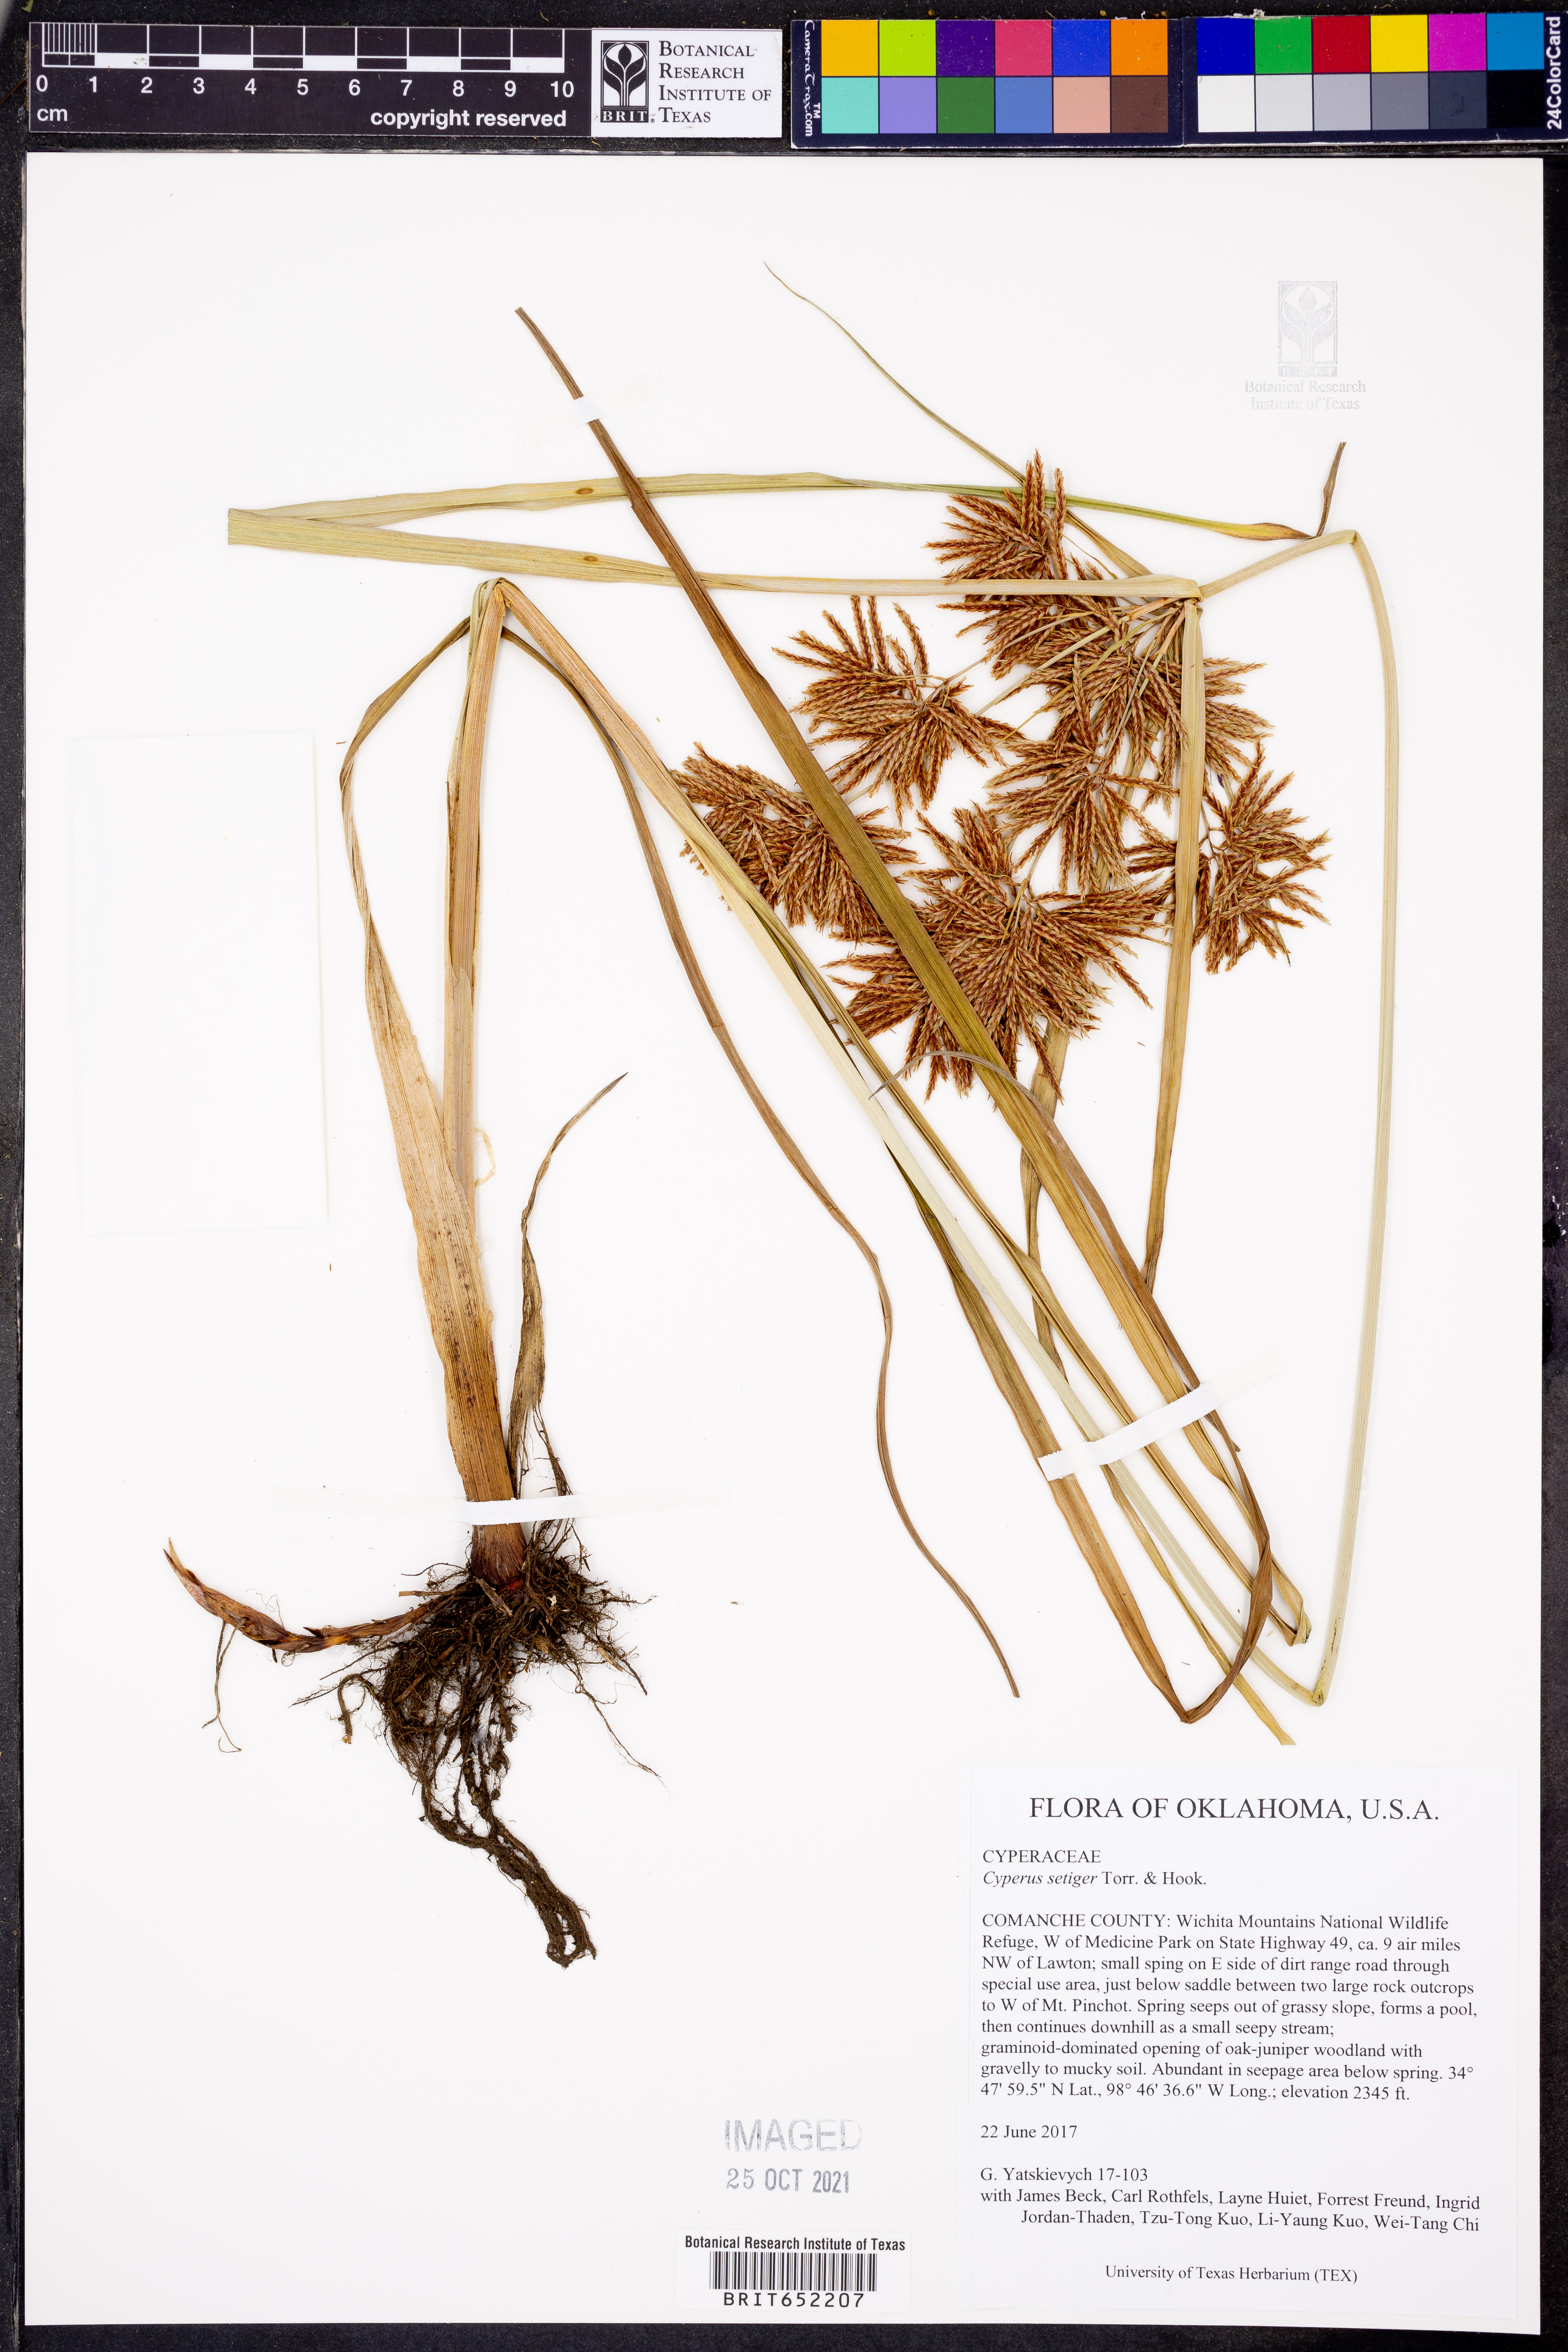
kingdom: Plantae
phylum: Tracheophyta
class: Liliopsida
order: Poales
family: Cyperaceae
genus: Cyperus
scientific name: Cyperus setigerus
